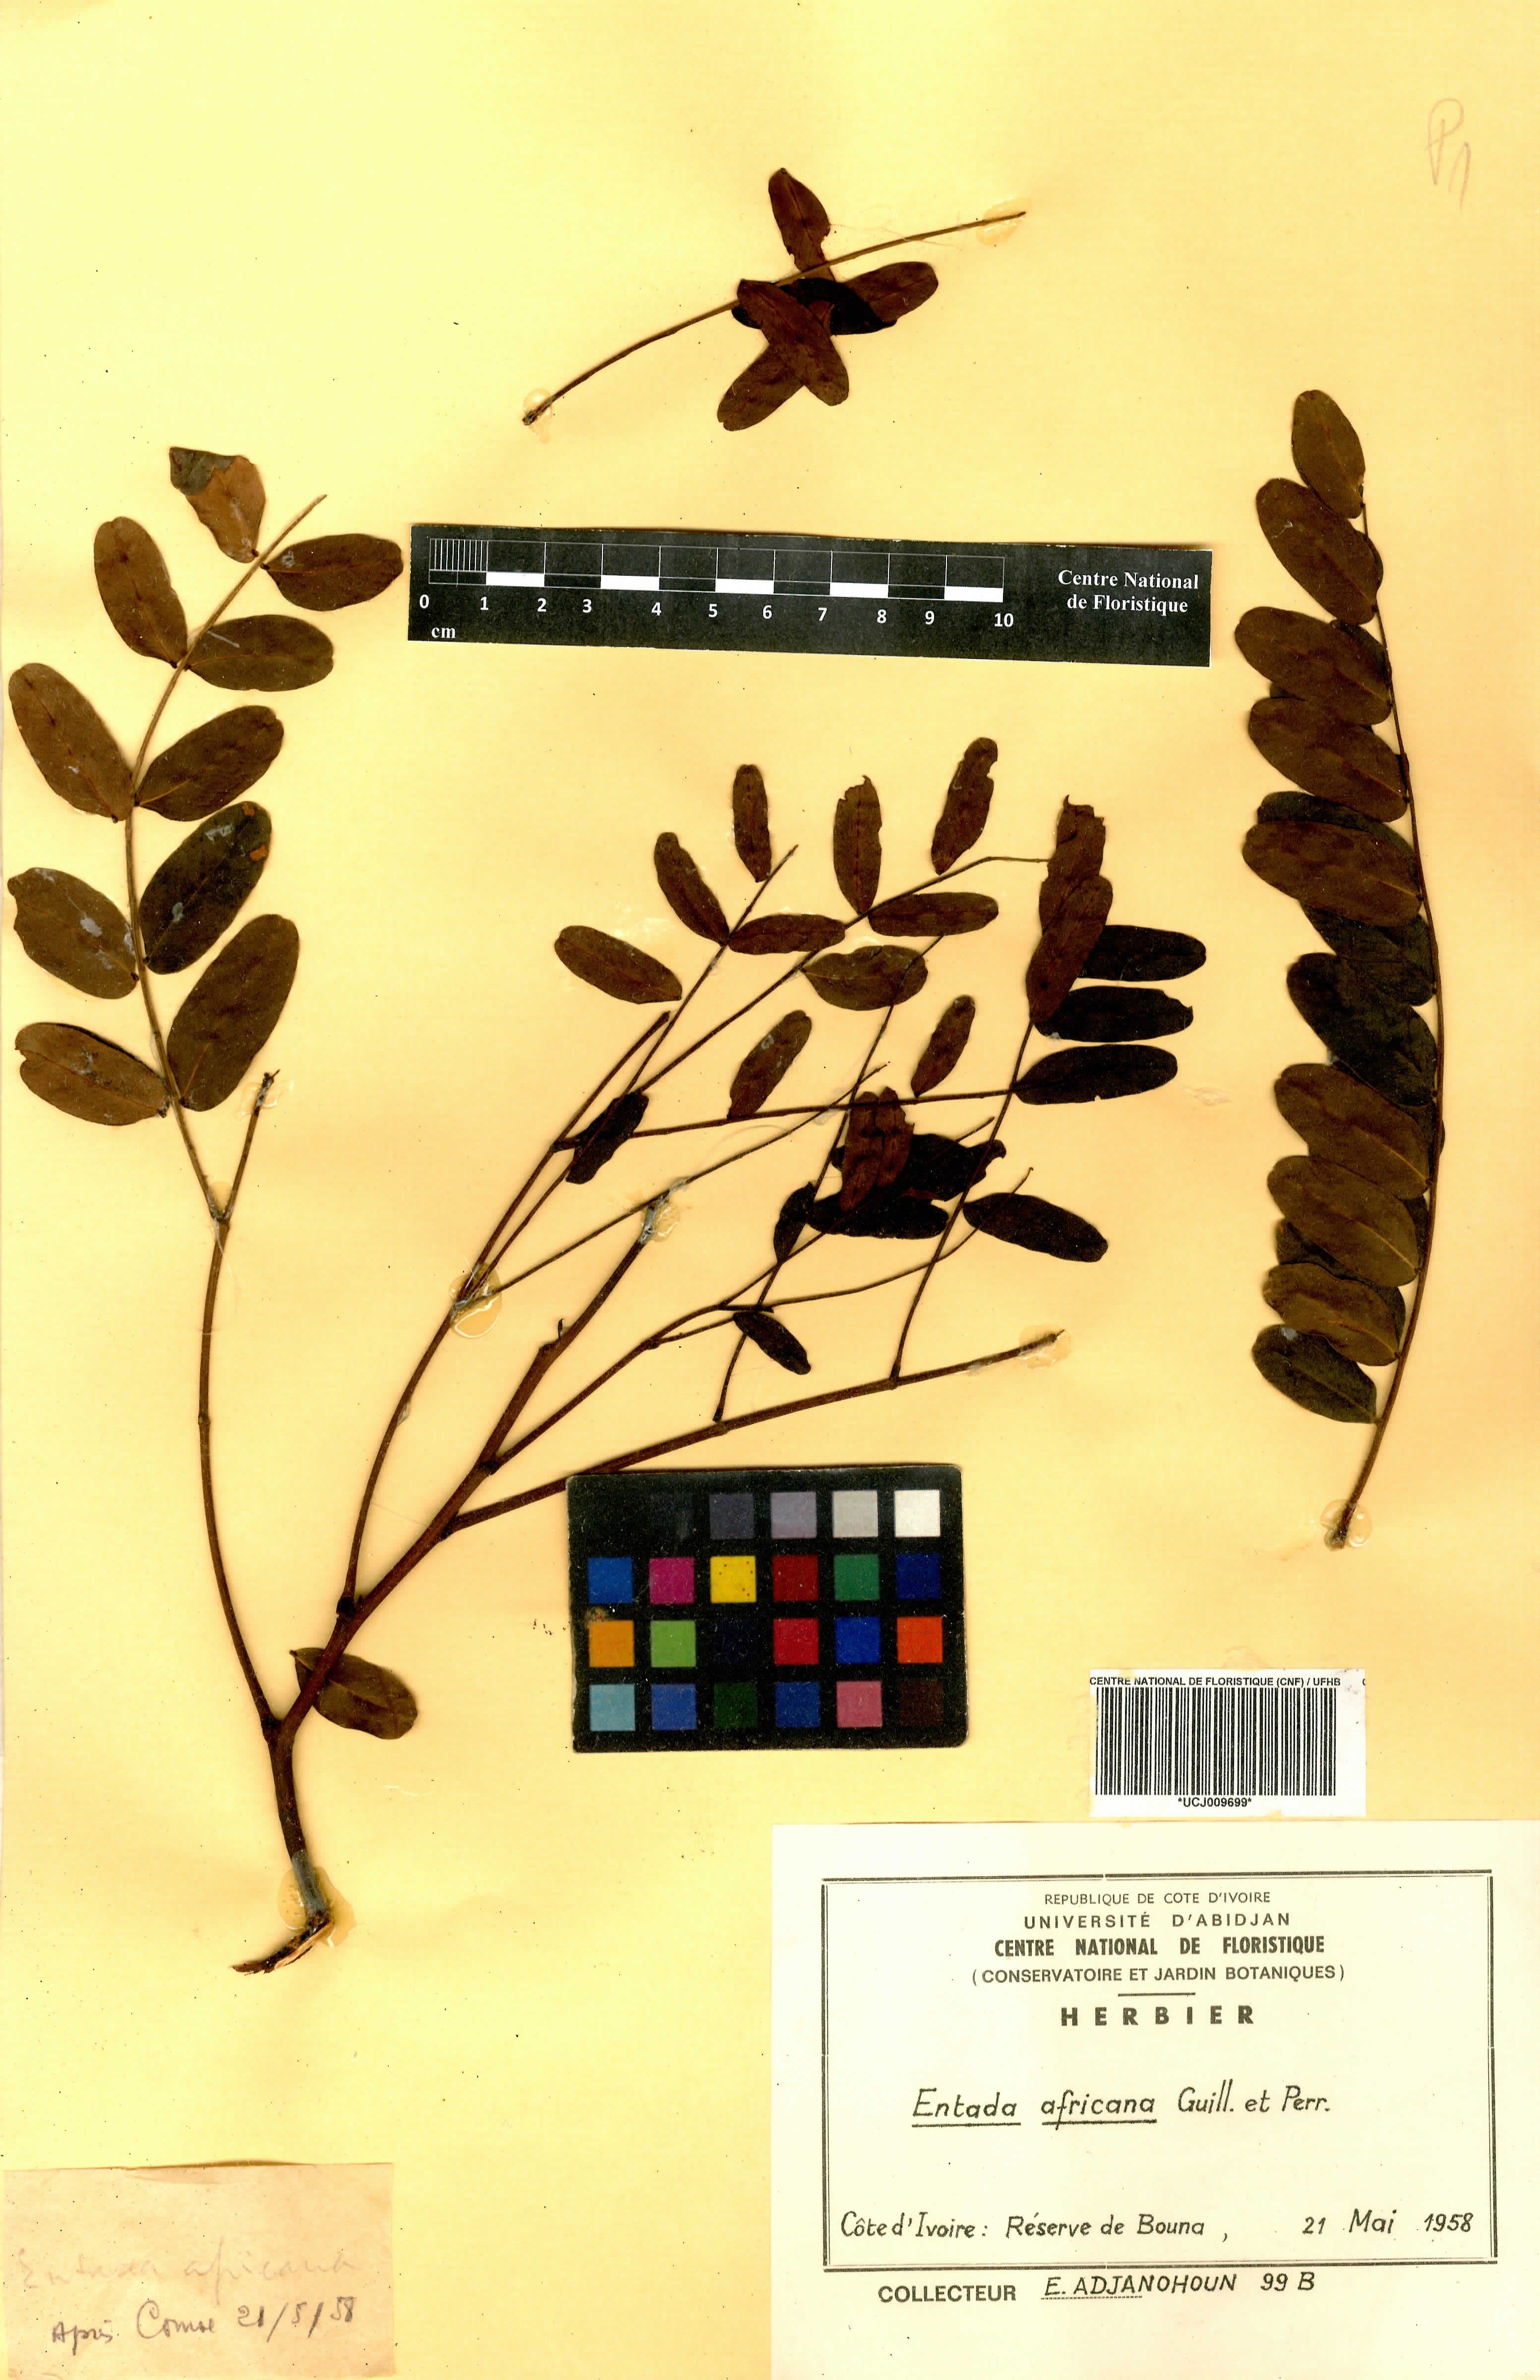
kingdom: Plantae
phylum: Tracheophyta
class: Magnoliopsida
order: Fabales
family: Fabaceae
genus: Entada
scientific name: Entada africana
